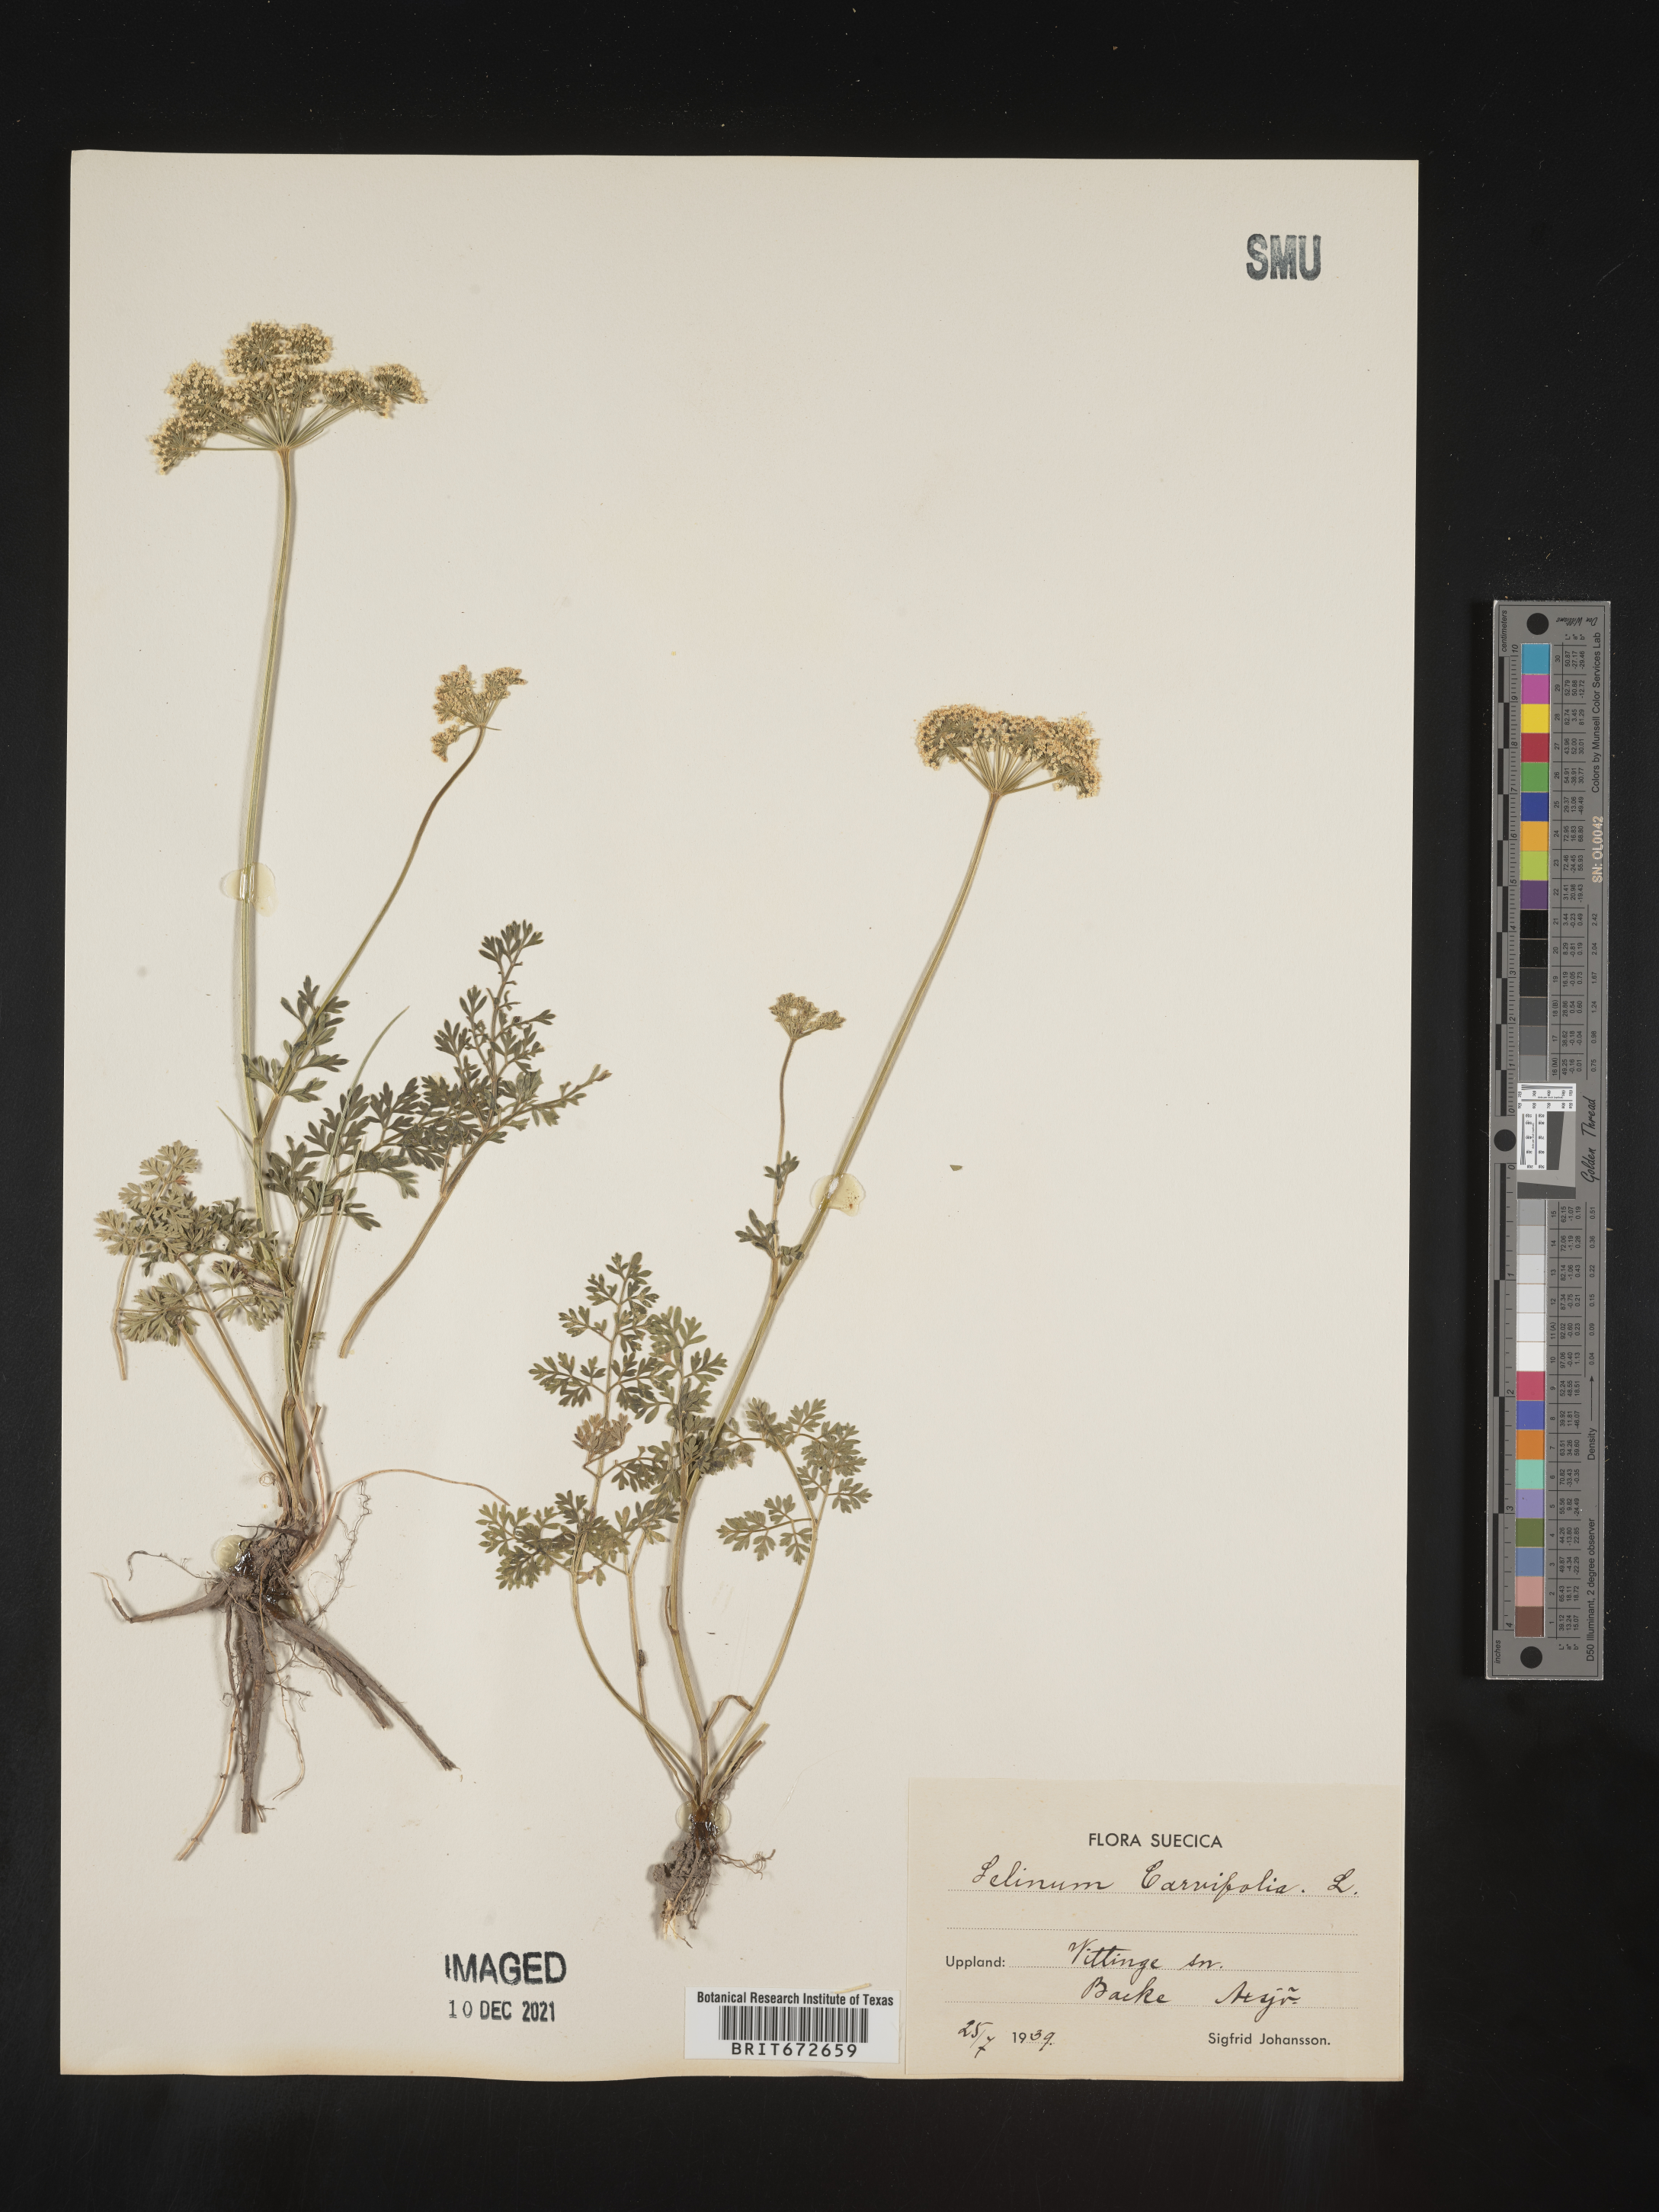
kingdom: Plantae
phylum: Tracheophyta
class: Magnoliopsida
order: Apiales
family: Apiaceae
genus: Selinum
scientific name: Selinum
